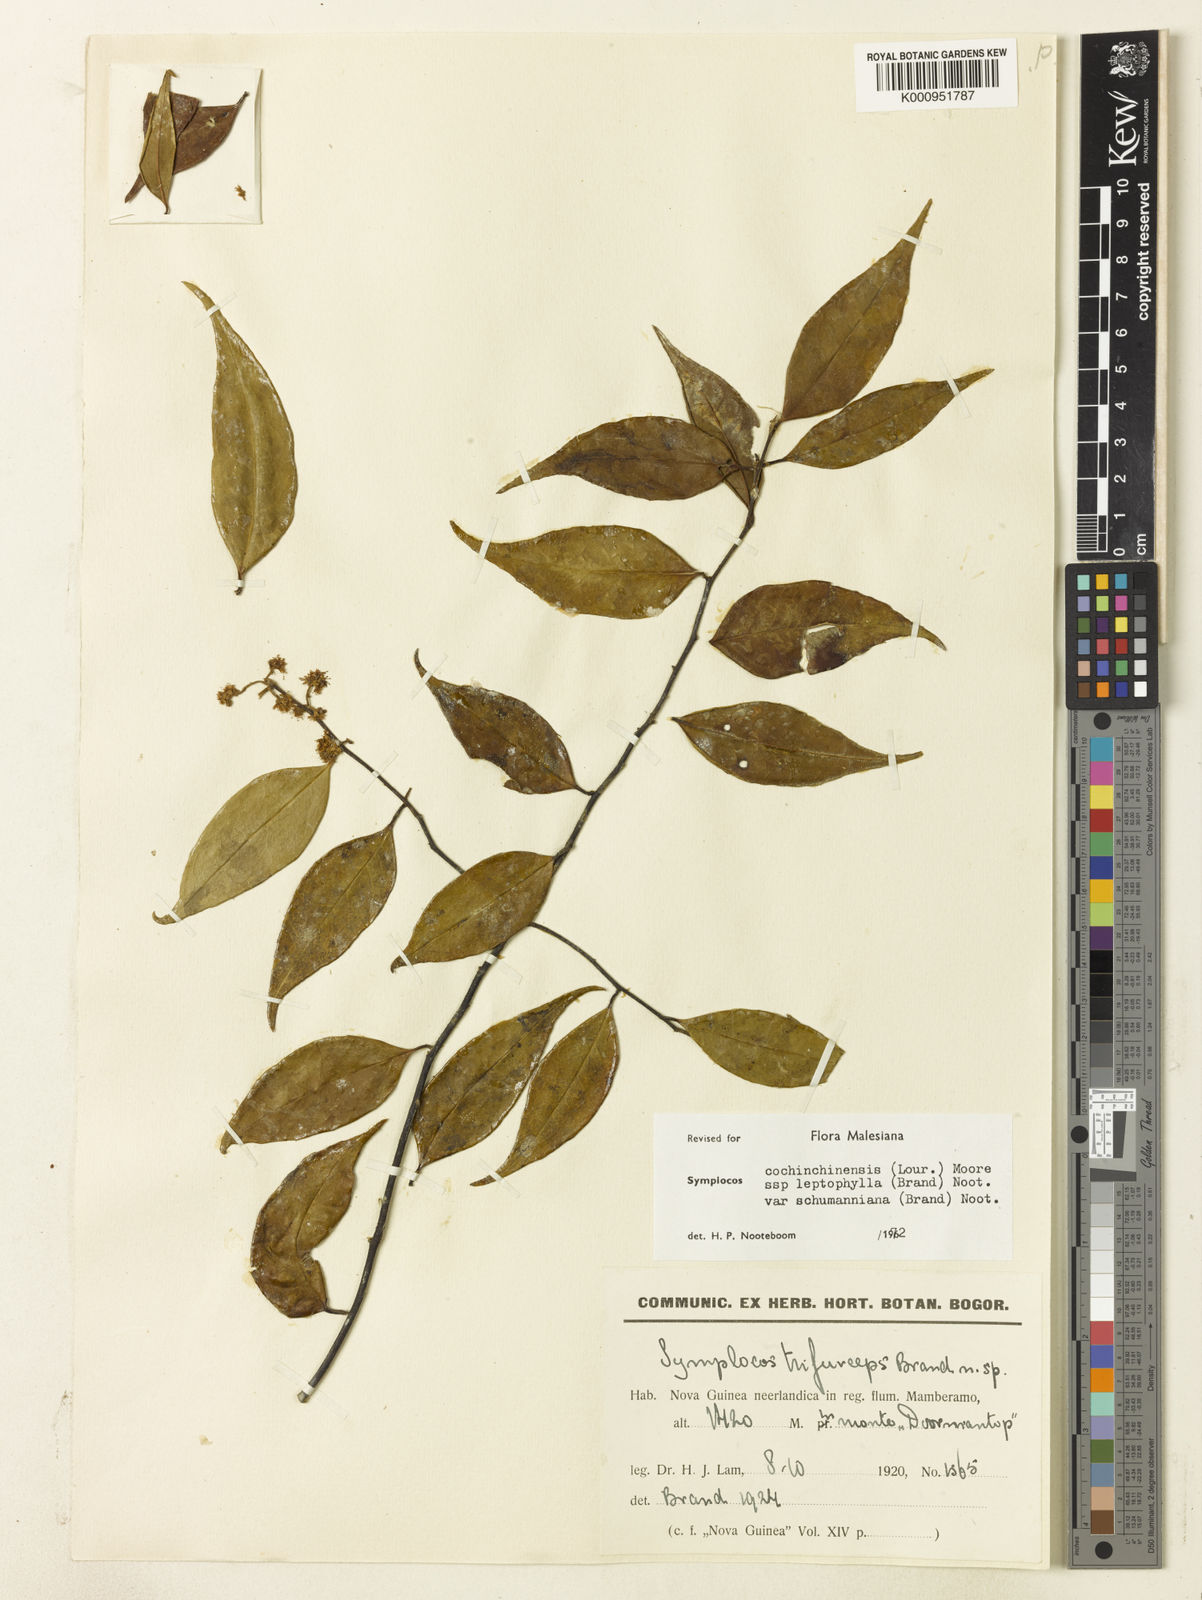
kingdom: Plantae
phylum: Tracheophyta
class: Magnoliopsida
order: Ericales
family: Symplocaceae
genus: Symplocos
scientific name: Symplocos cochinchinensis
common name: Buff hazelwood
